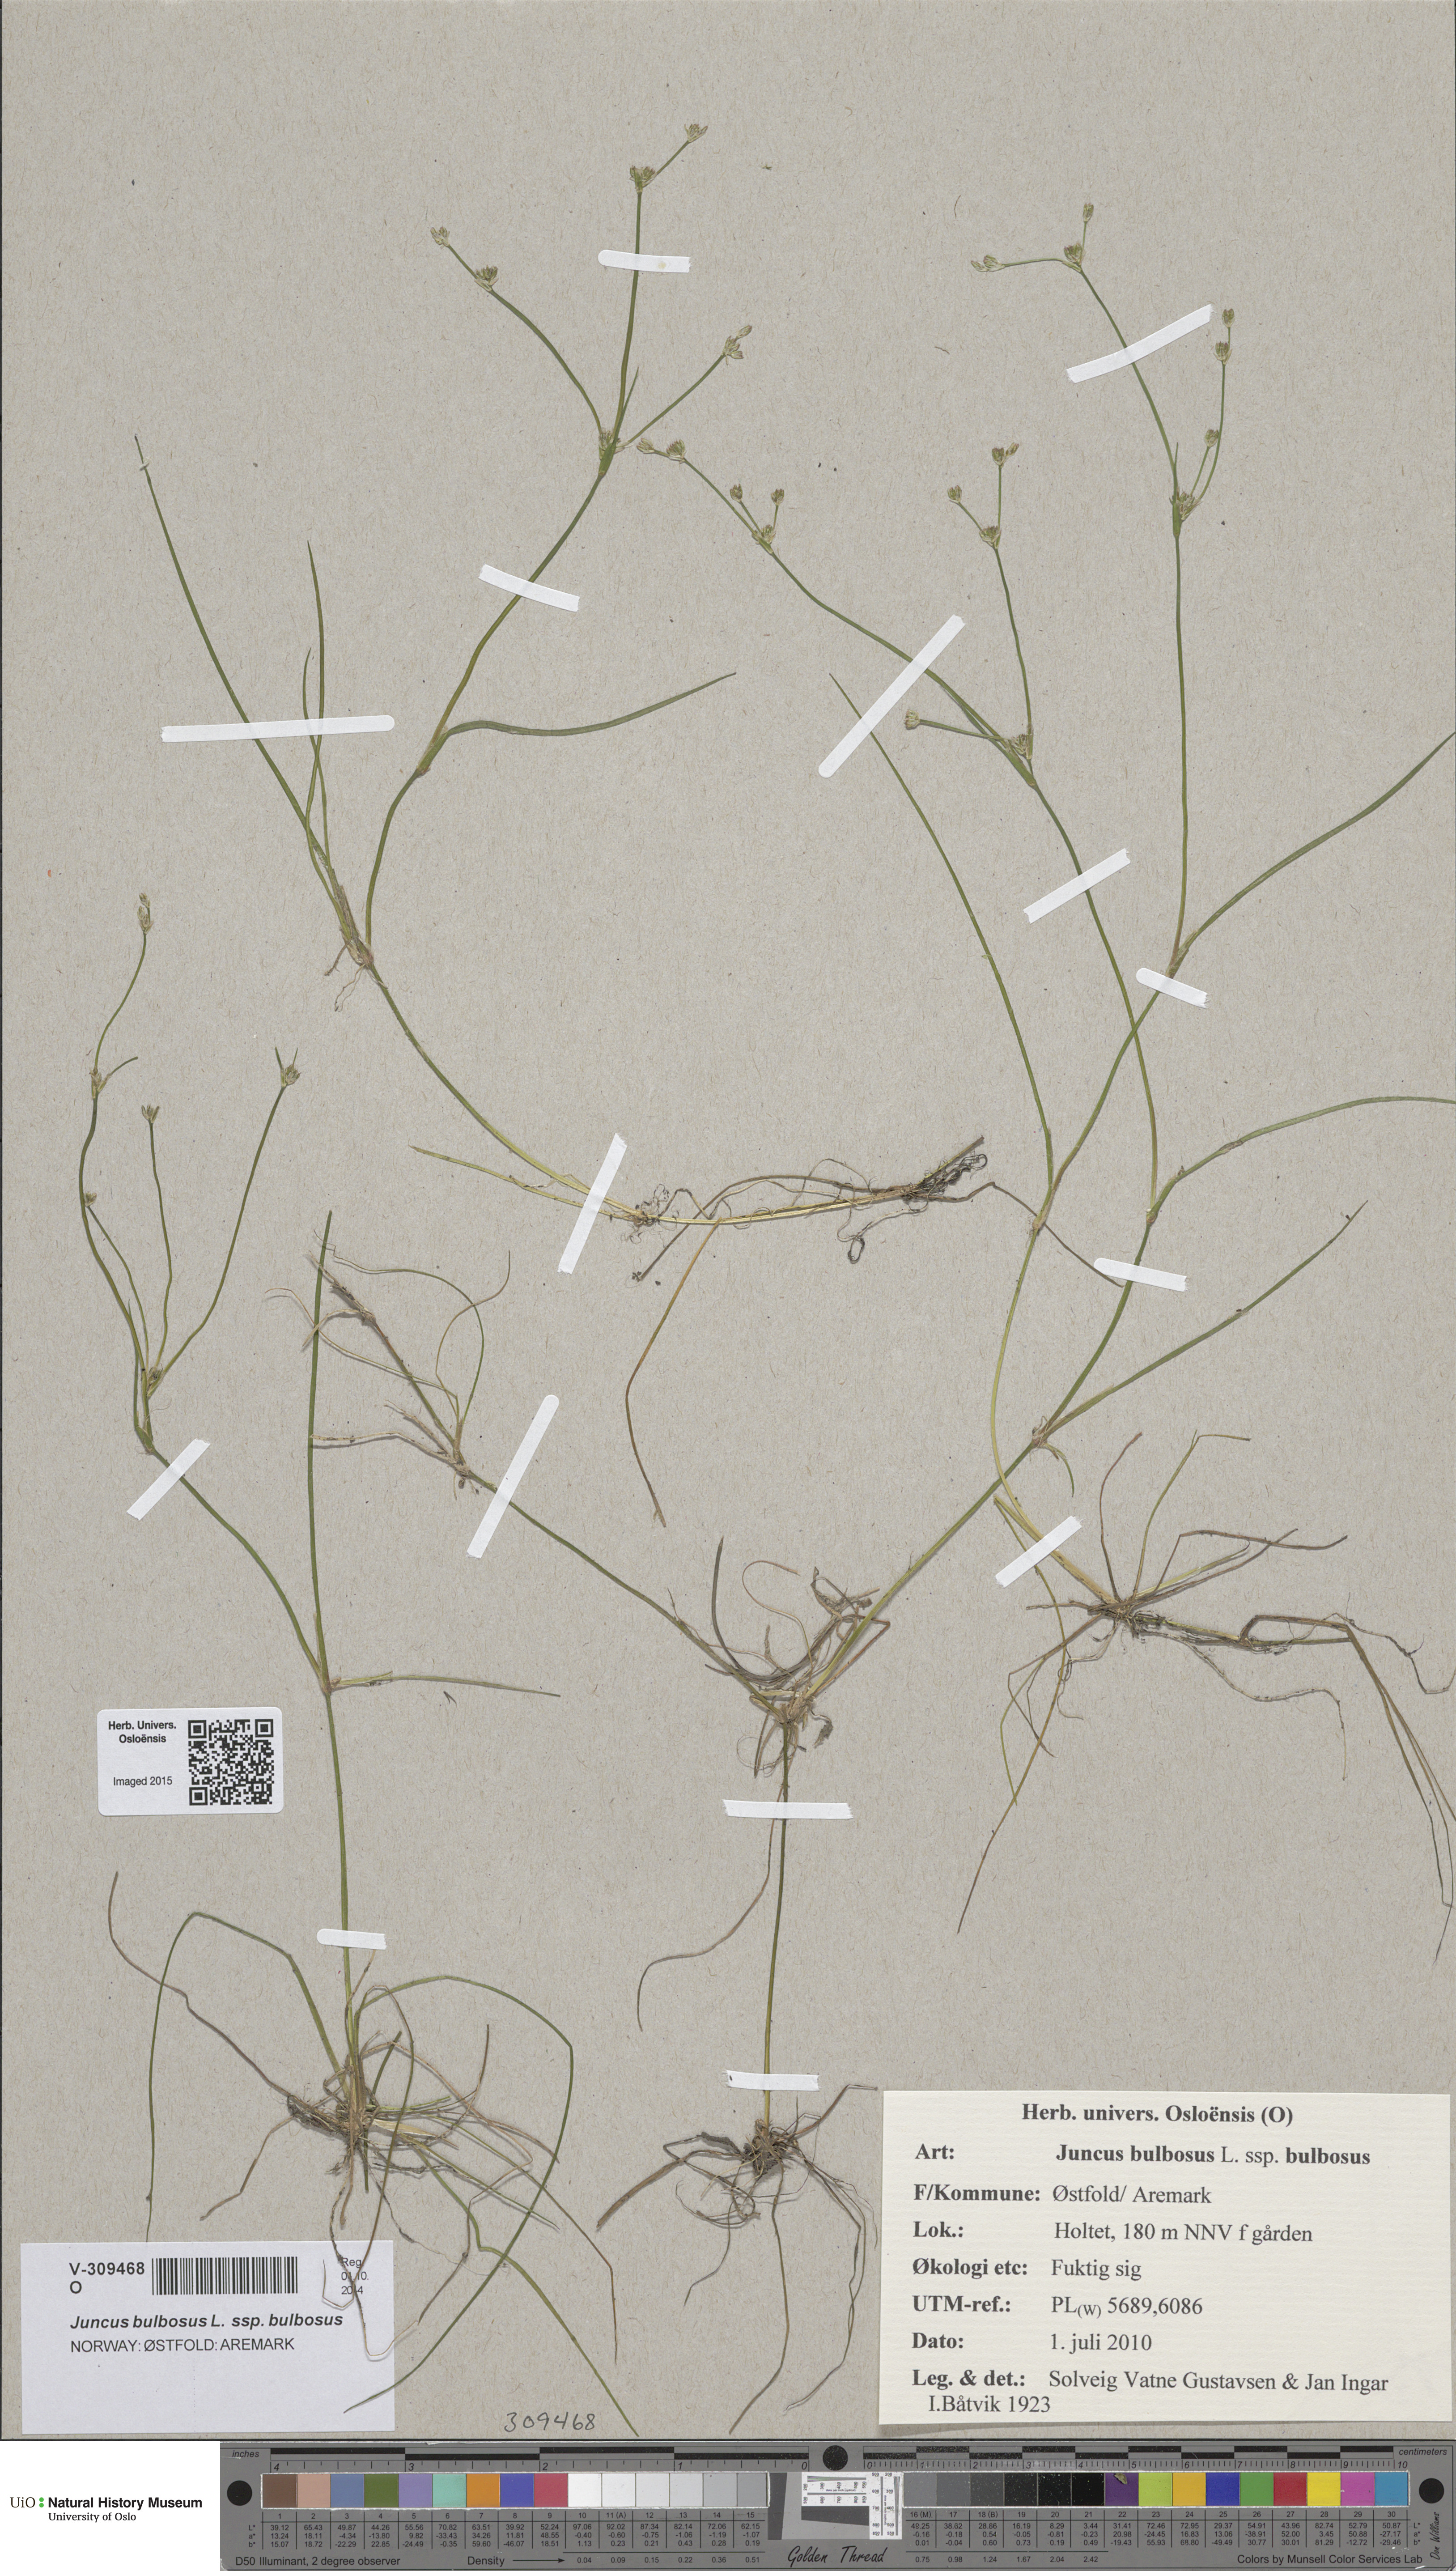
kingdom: Plantae
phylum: Tracheophyta
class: Liliopsida
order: Poales
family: Juncaceae
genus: Juncus
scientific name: Juncus bulbosus
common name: Bulbous rush
